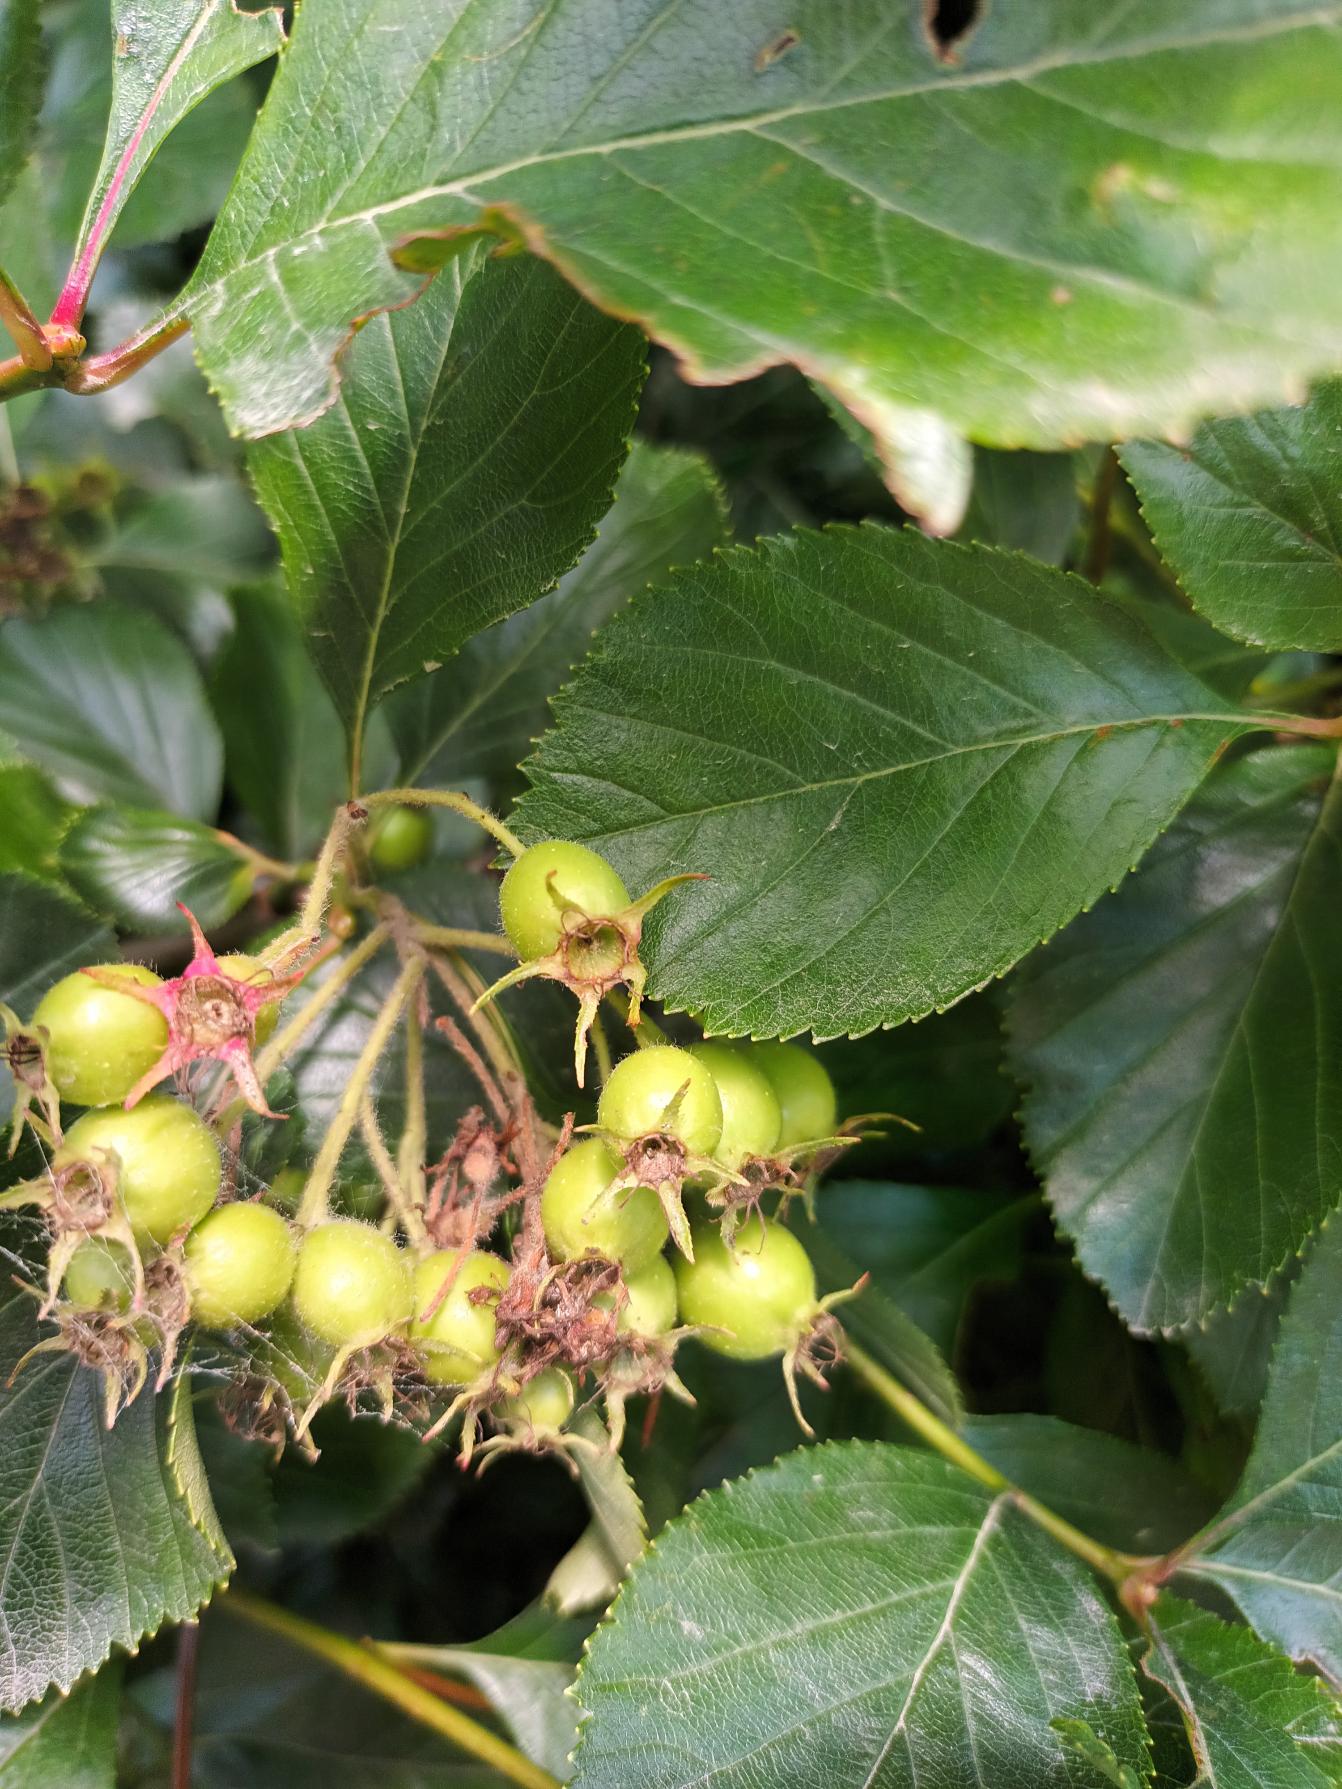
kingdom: Plantae
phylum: Tracheophyta
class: Magnoliopsida
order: Rosales
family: Rosaceae
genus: Crataegus
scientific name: Crataegus persimilis
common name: Syltornet tjørn
